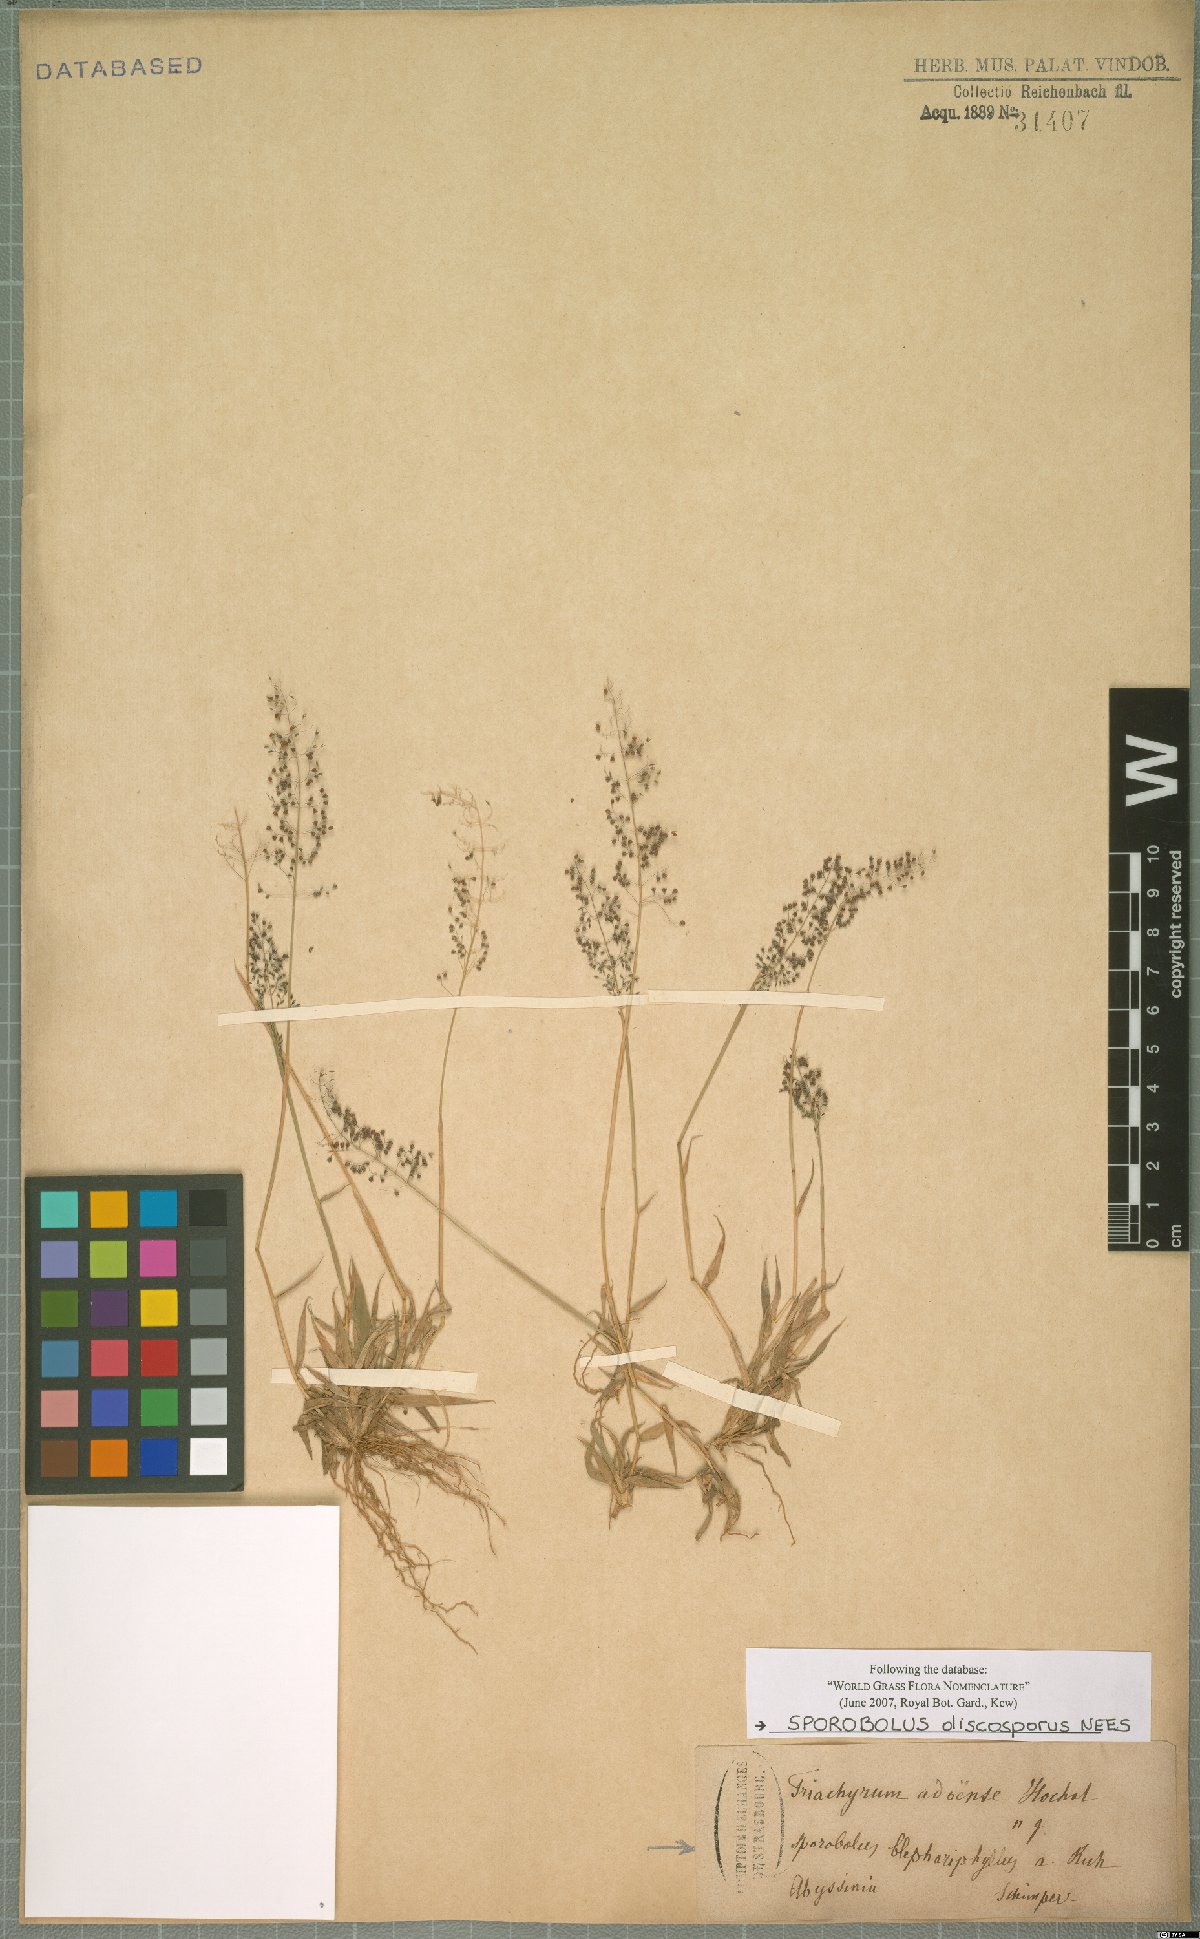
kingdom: Plantae
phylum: Tracheophyta
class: Liliopsida
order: Poales
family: Poaceae
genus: Sporobolus
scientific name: Sporobolus discosporus
